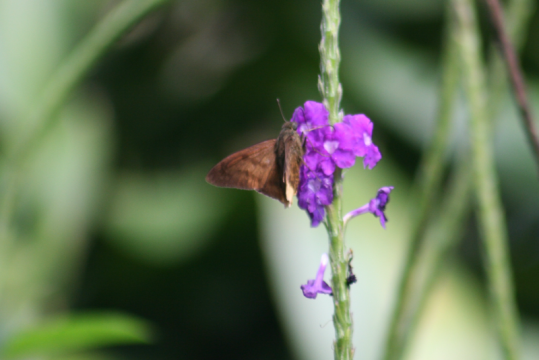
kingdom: Animalia
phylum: Arthropoda
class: Insecta
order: Lepidoptera
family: Hesperiidae
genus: Astraptes
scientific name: Astraptes anaphus
